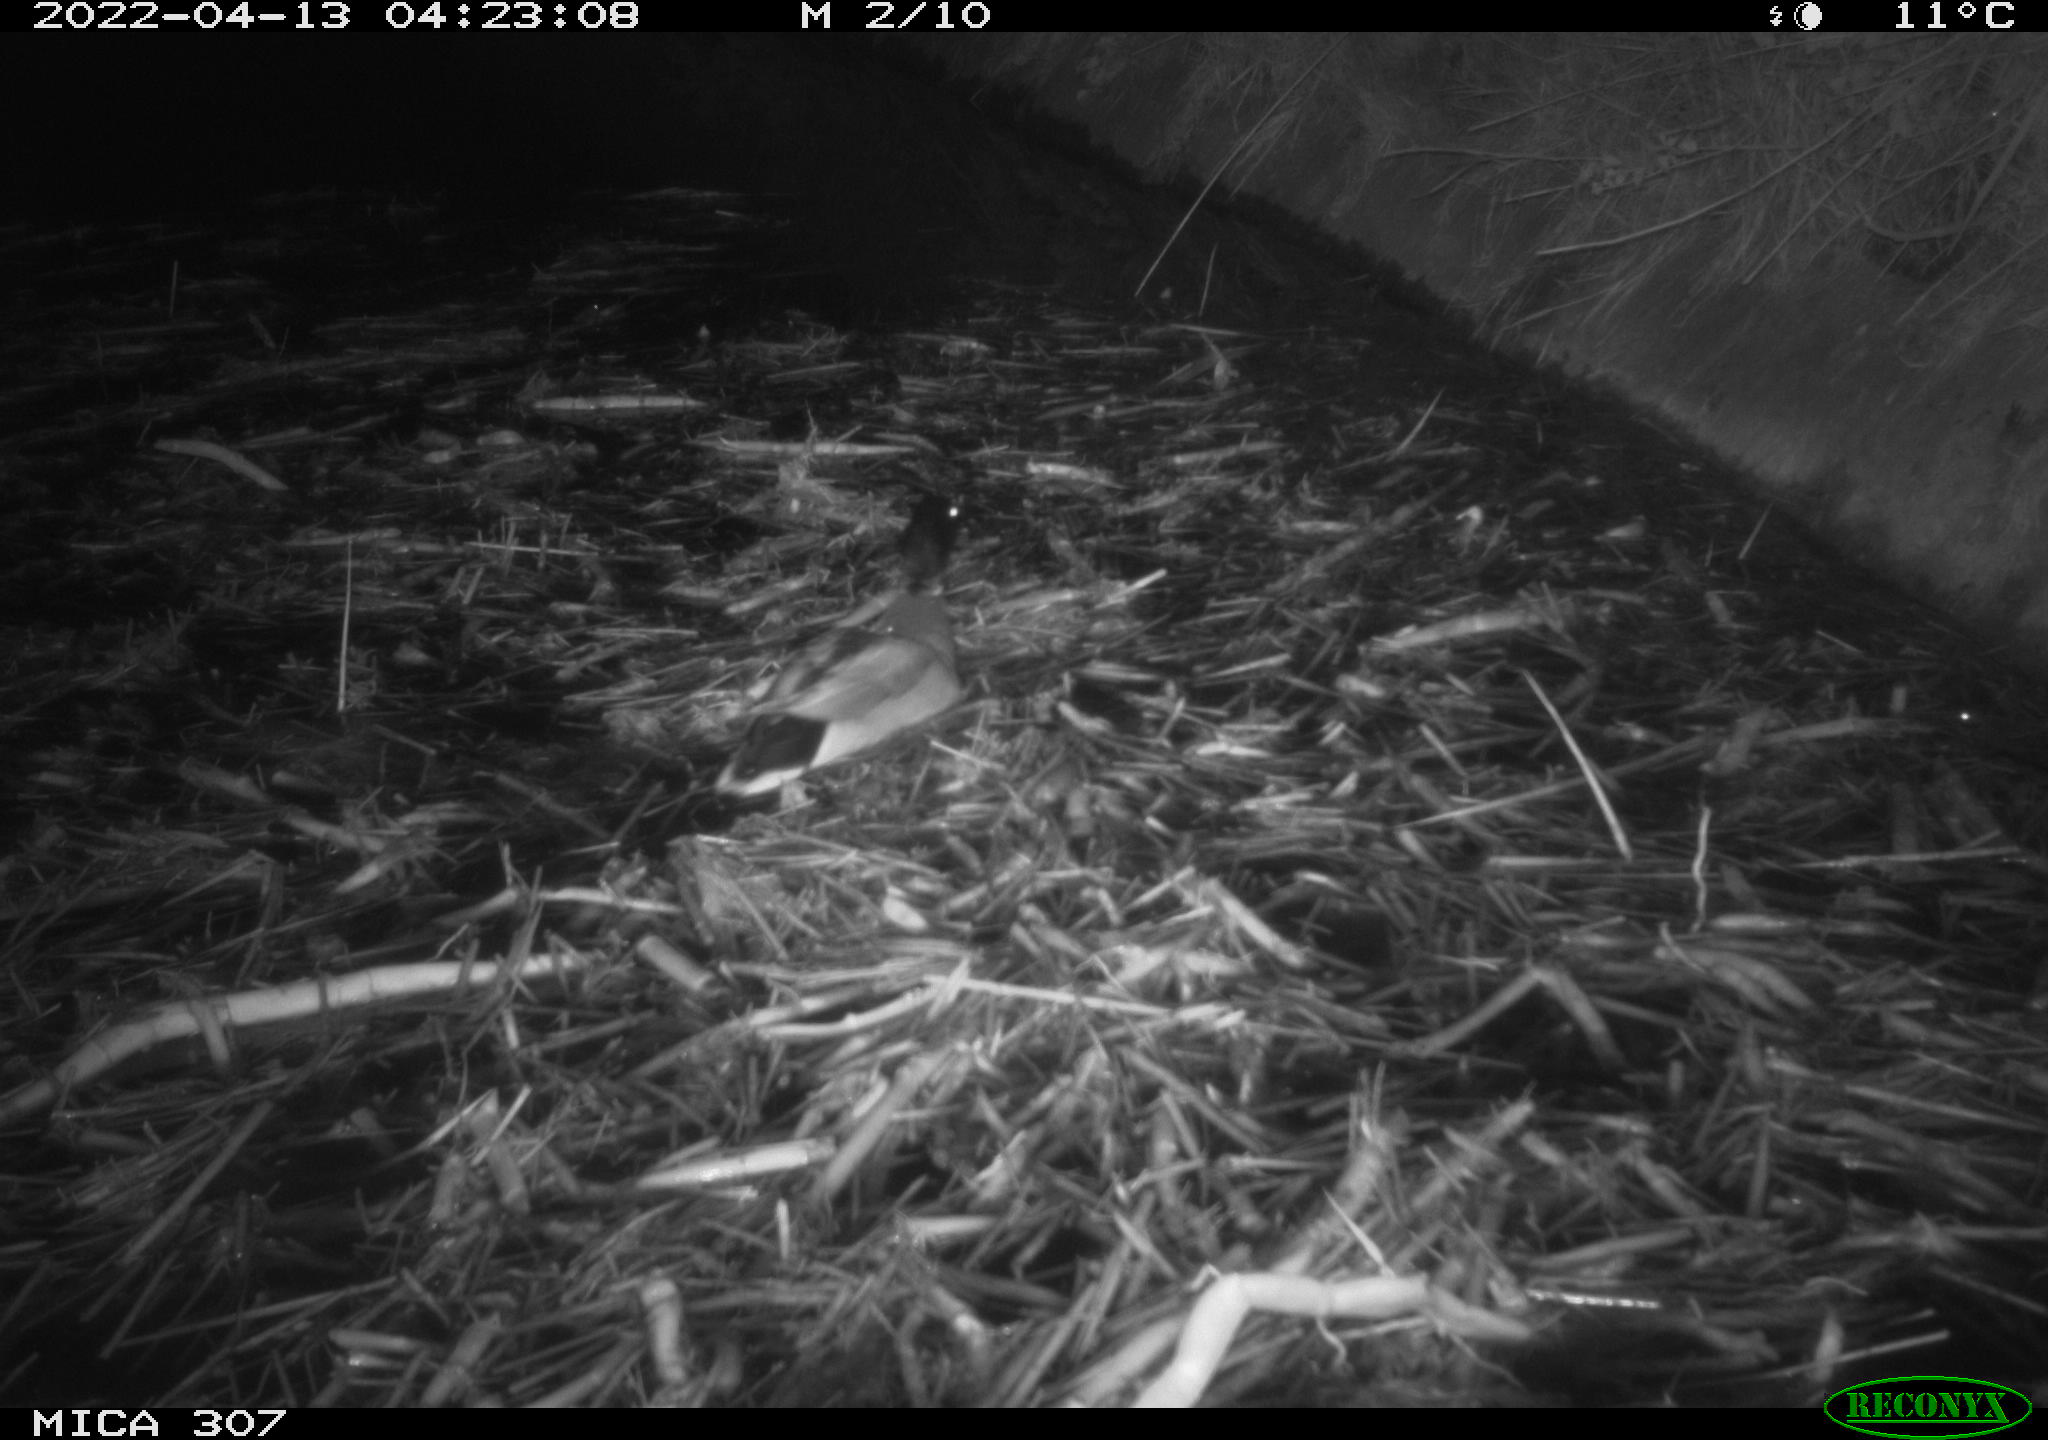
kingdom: Animalia
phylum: Chordata
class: Aves
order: Anseriformes
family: Anatidae
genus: Anas
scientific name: Anas platyrhynchos
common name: Mallard
